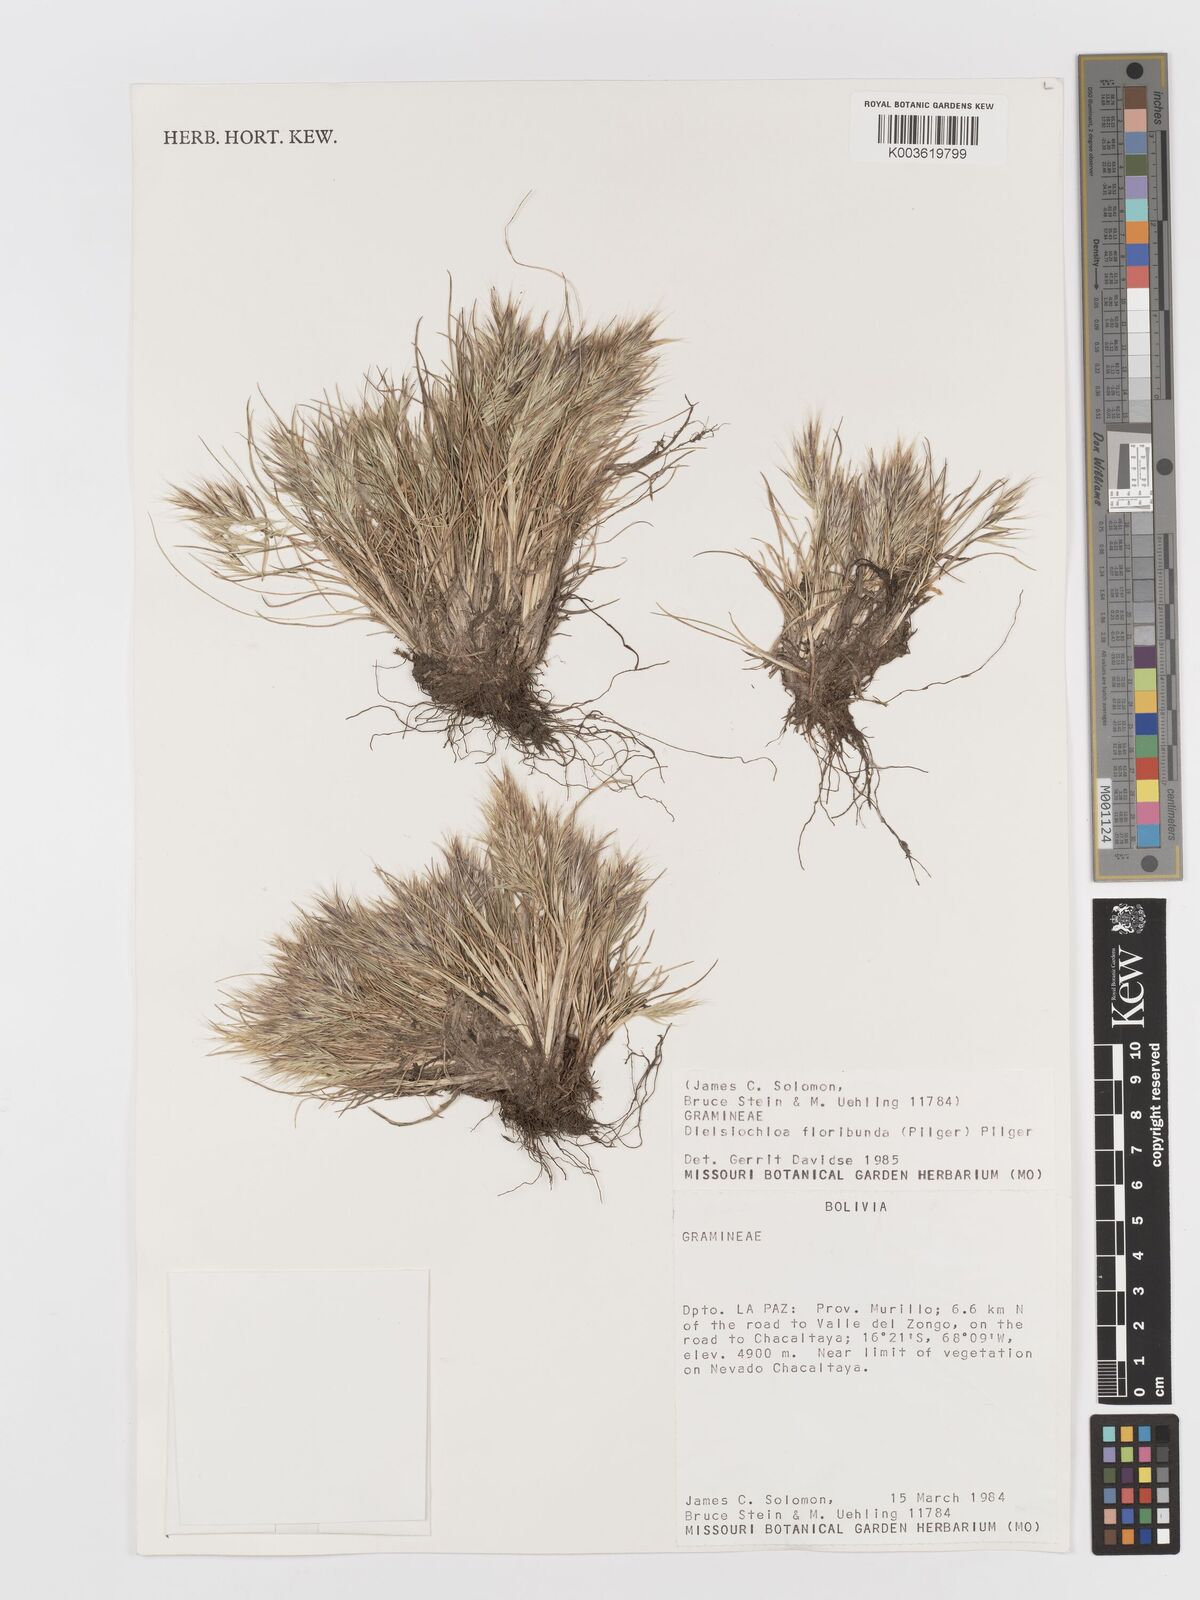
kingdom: Plantae
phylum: Tracheophyta
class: Liliopsida
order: Poales
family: Poaceae
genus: Festuca
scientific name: Festuca floribunda
